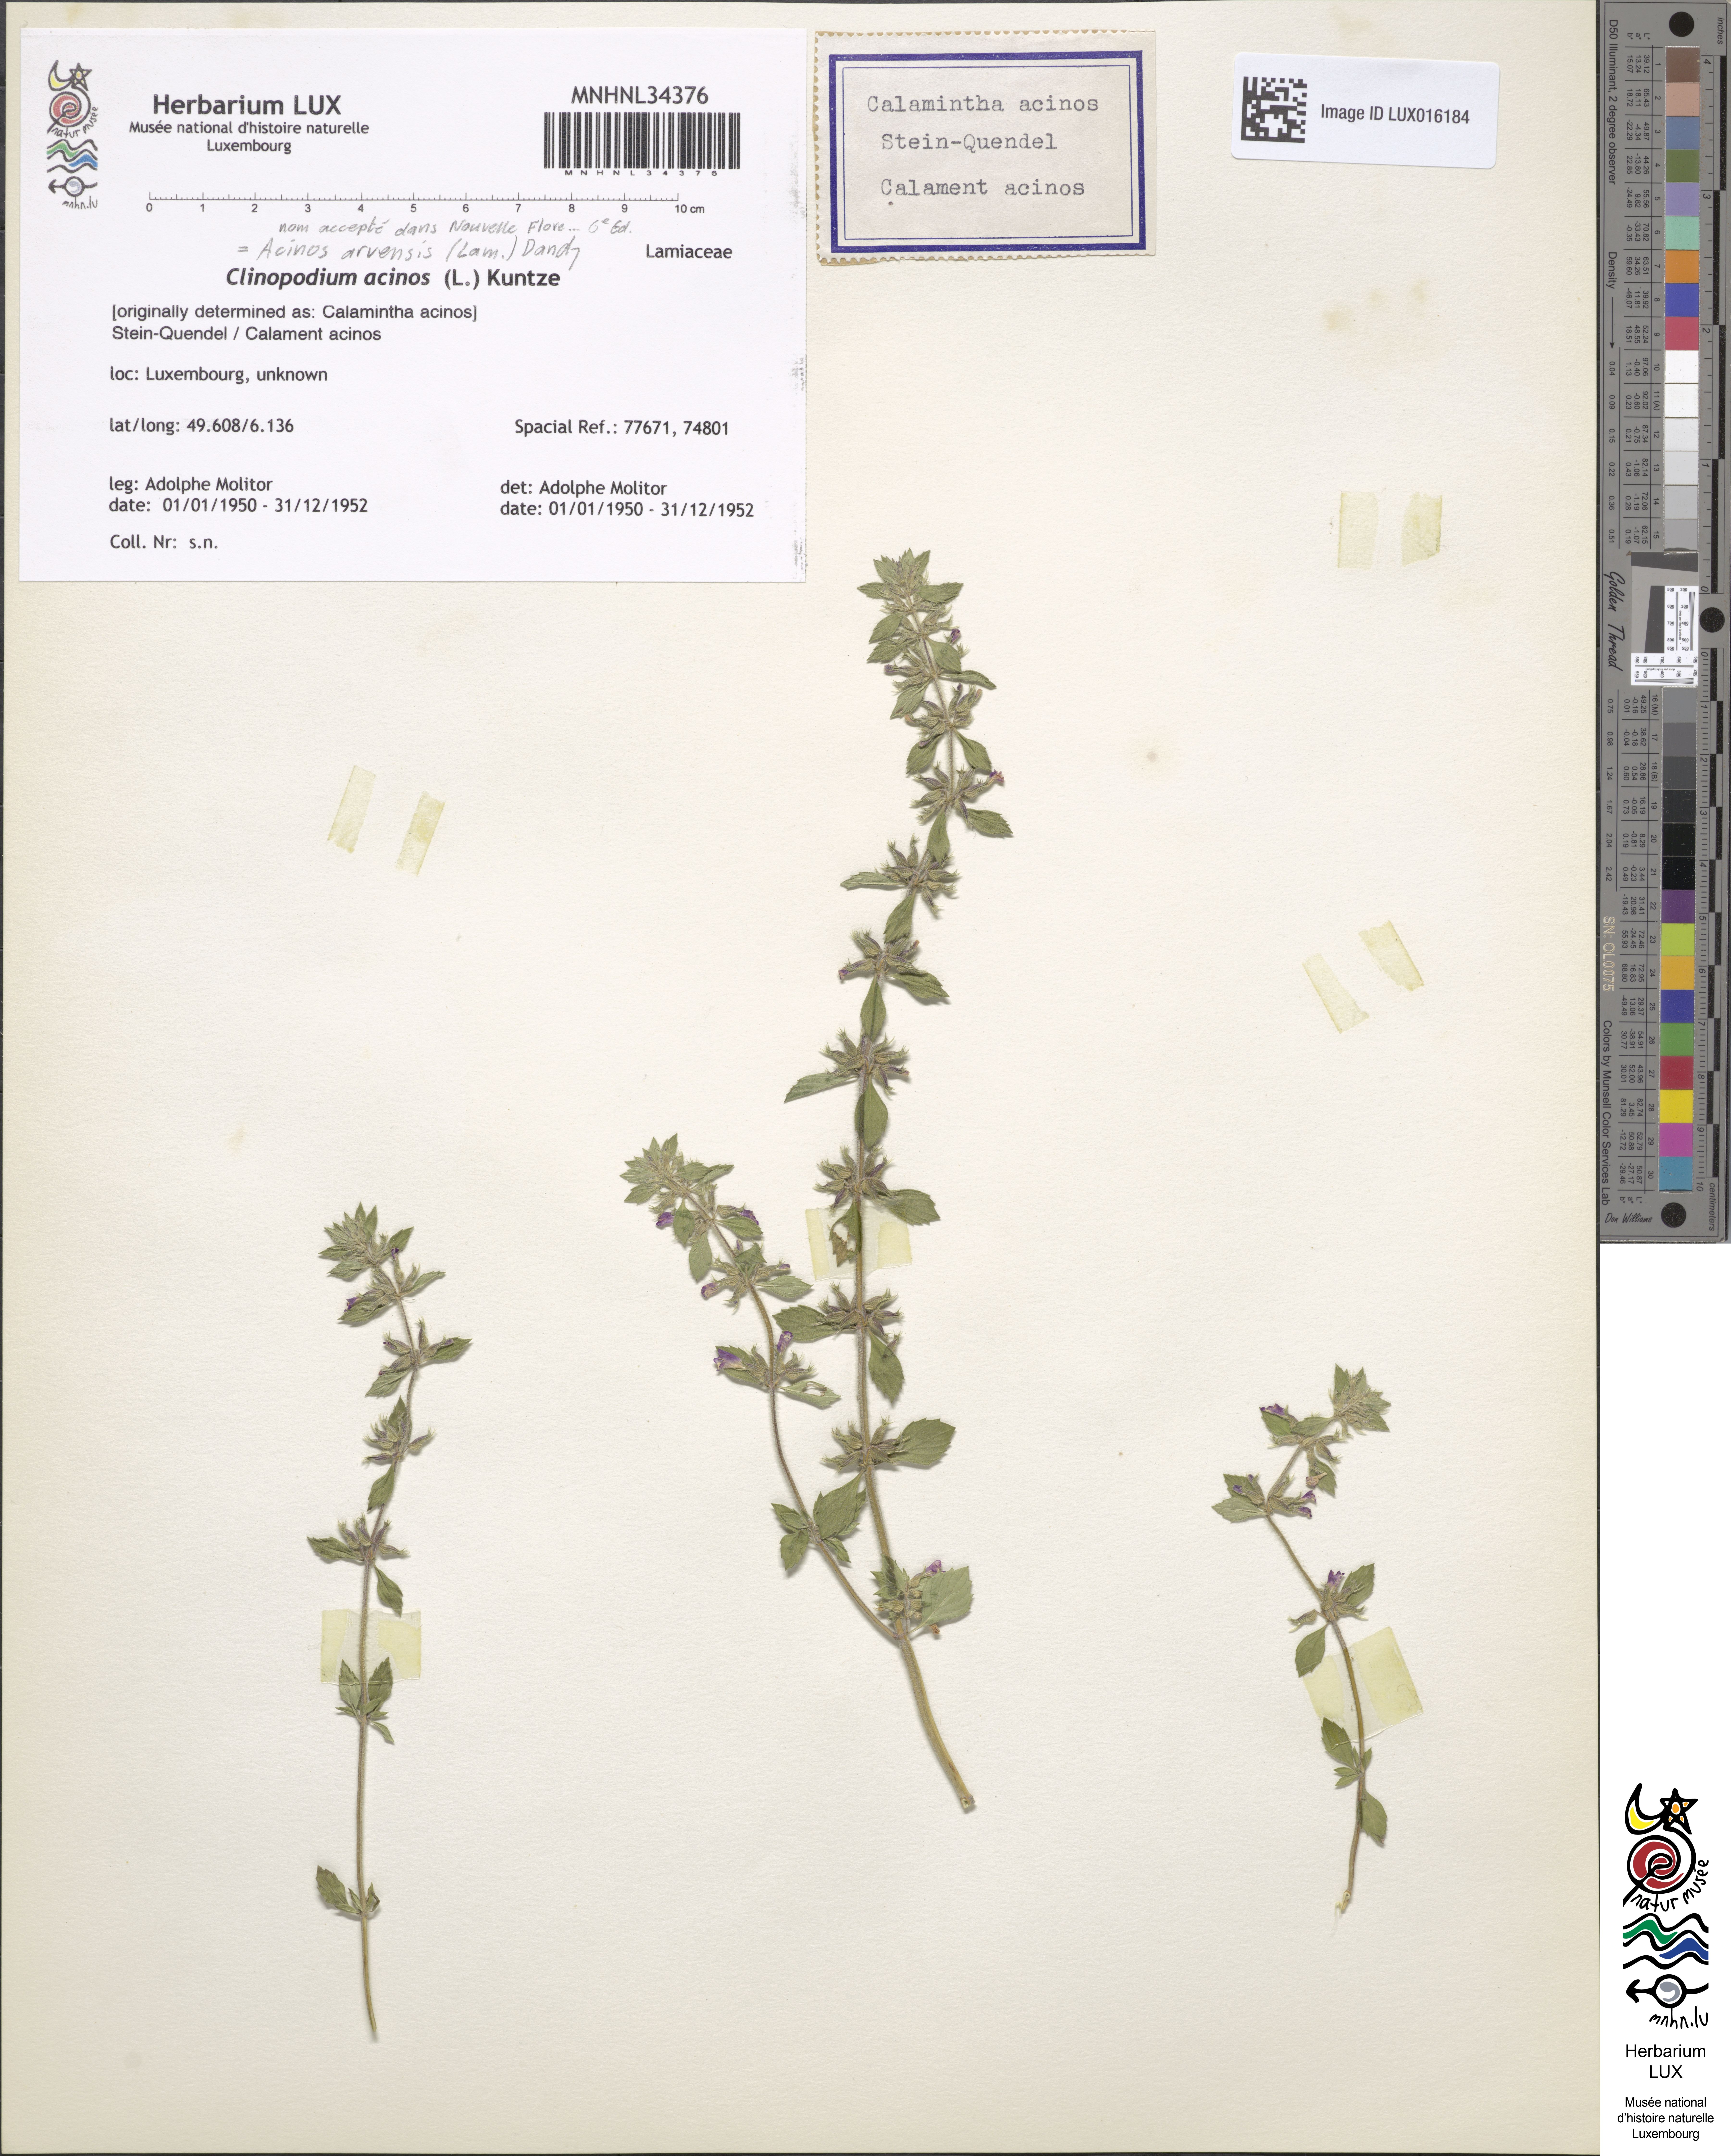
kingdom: Plantae
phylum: Tracheophyta
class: Magnoliopsida
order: Lamiales
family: Lamiaceae
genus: Clinopodium
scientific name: Clinopodium acinos
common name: Basil thyme
